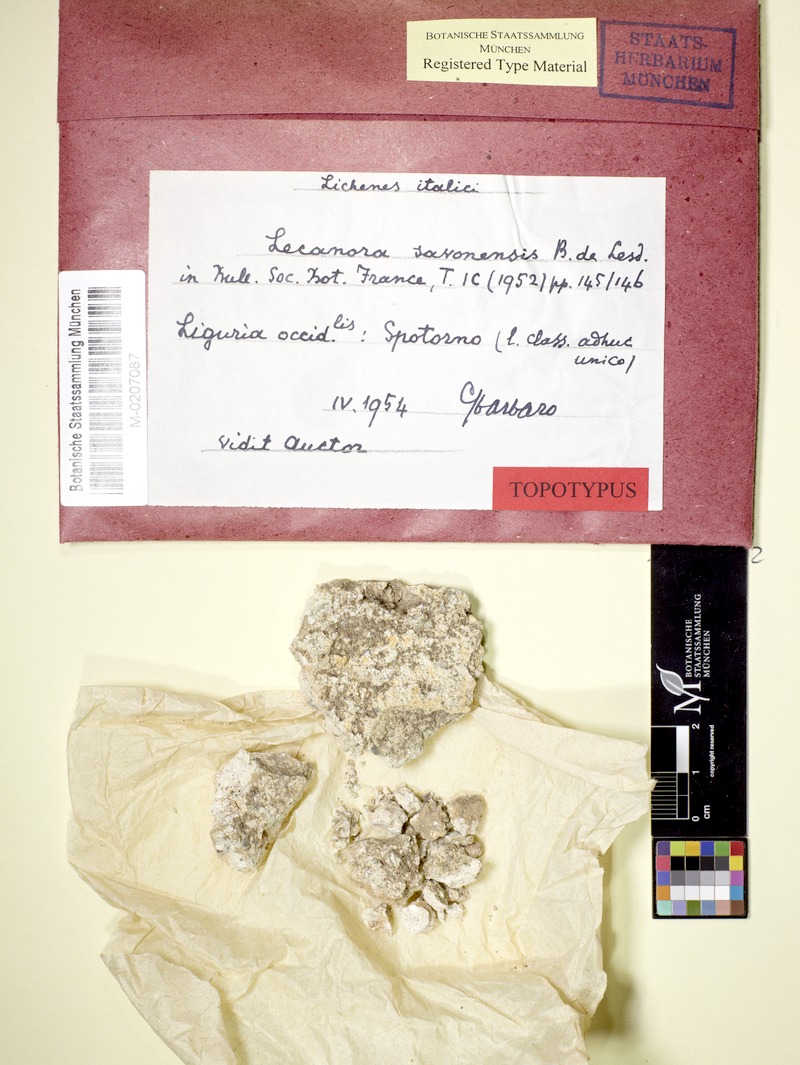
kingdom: Fungi
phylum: Ascomycota
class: Lecanoromycetes
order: Lecanorales
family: Lecanoraceae
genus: Lecanora
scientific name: Lecanora paepalea
